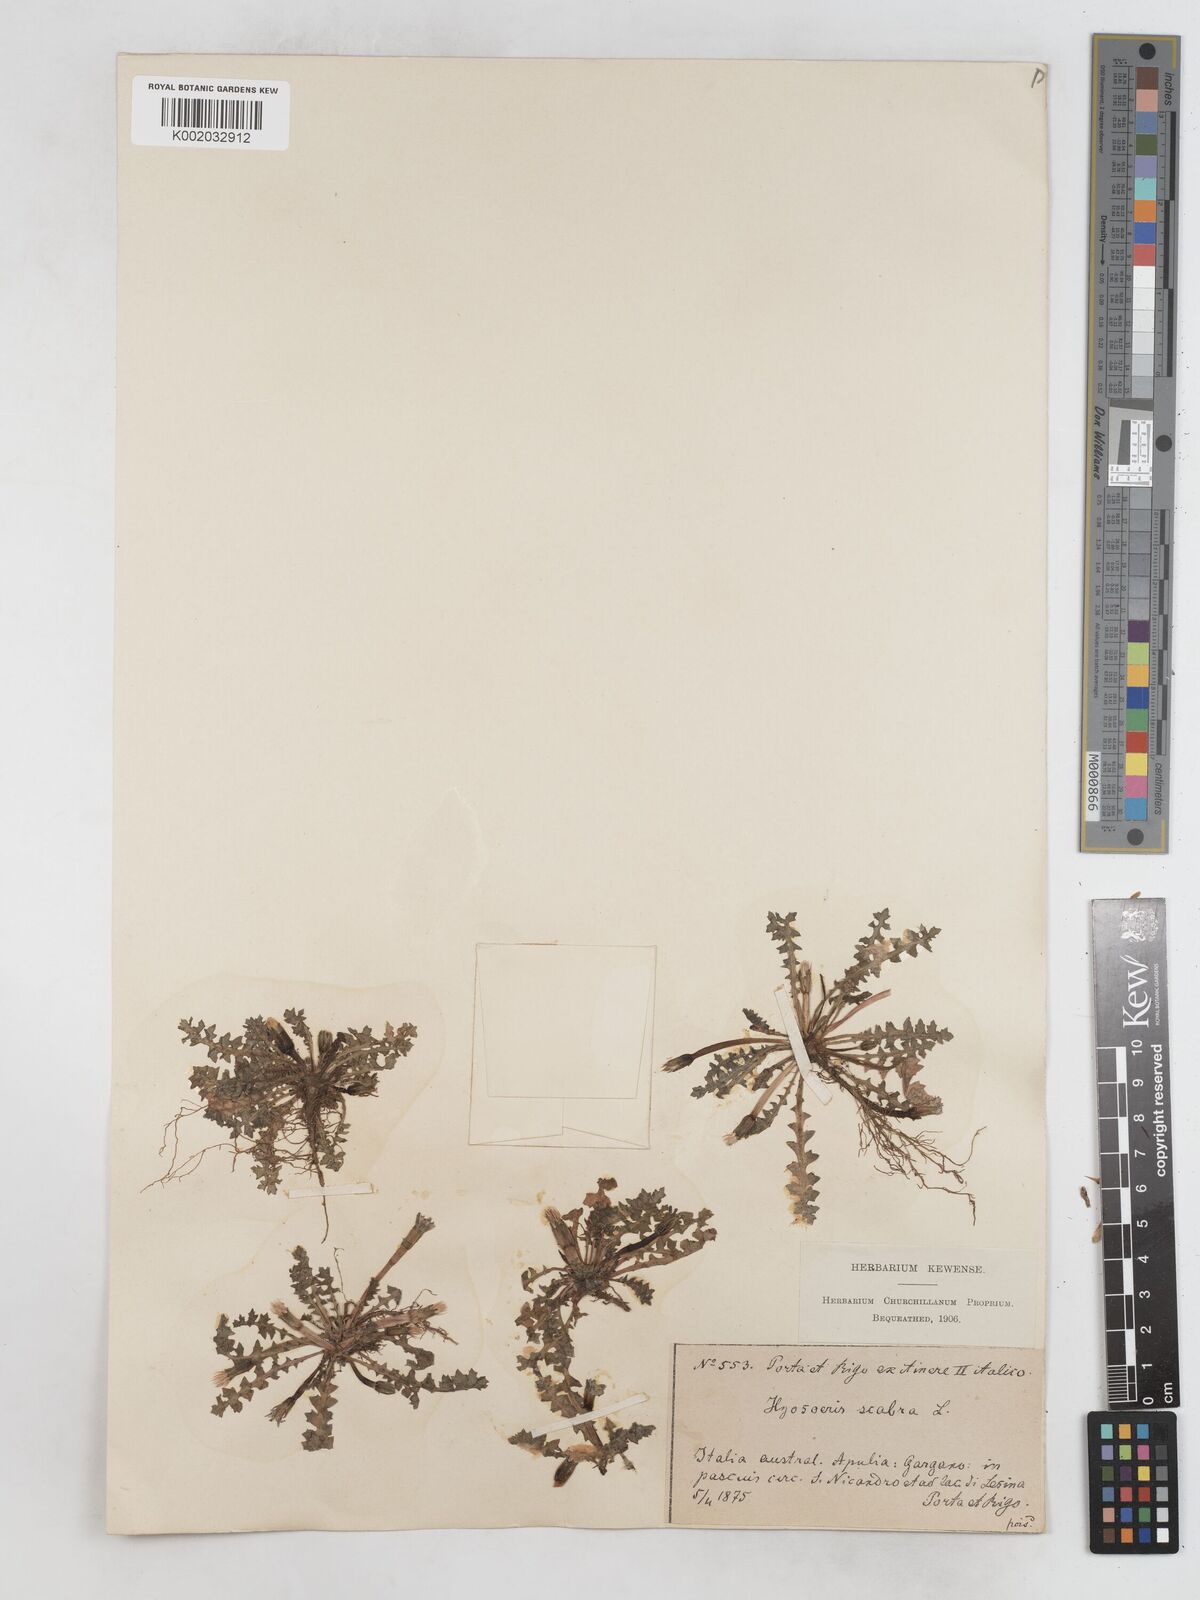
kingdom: Plantae
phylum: Tracheophyta
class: Magnoliopsida
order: Asterales
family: Asteraceae
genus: Hyoseris
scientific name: Hyoseris scabra
